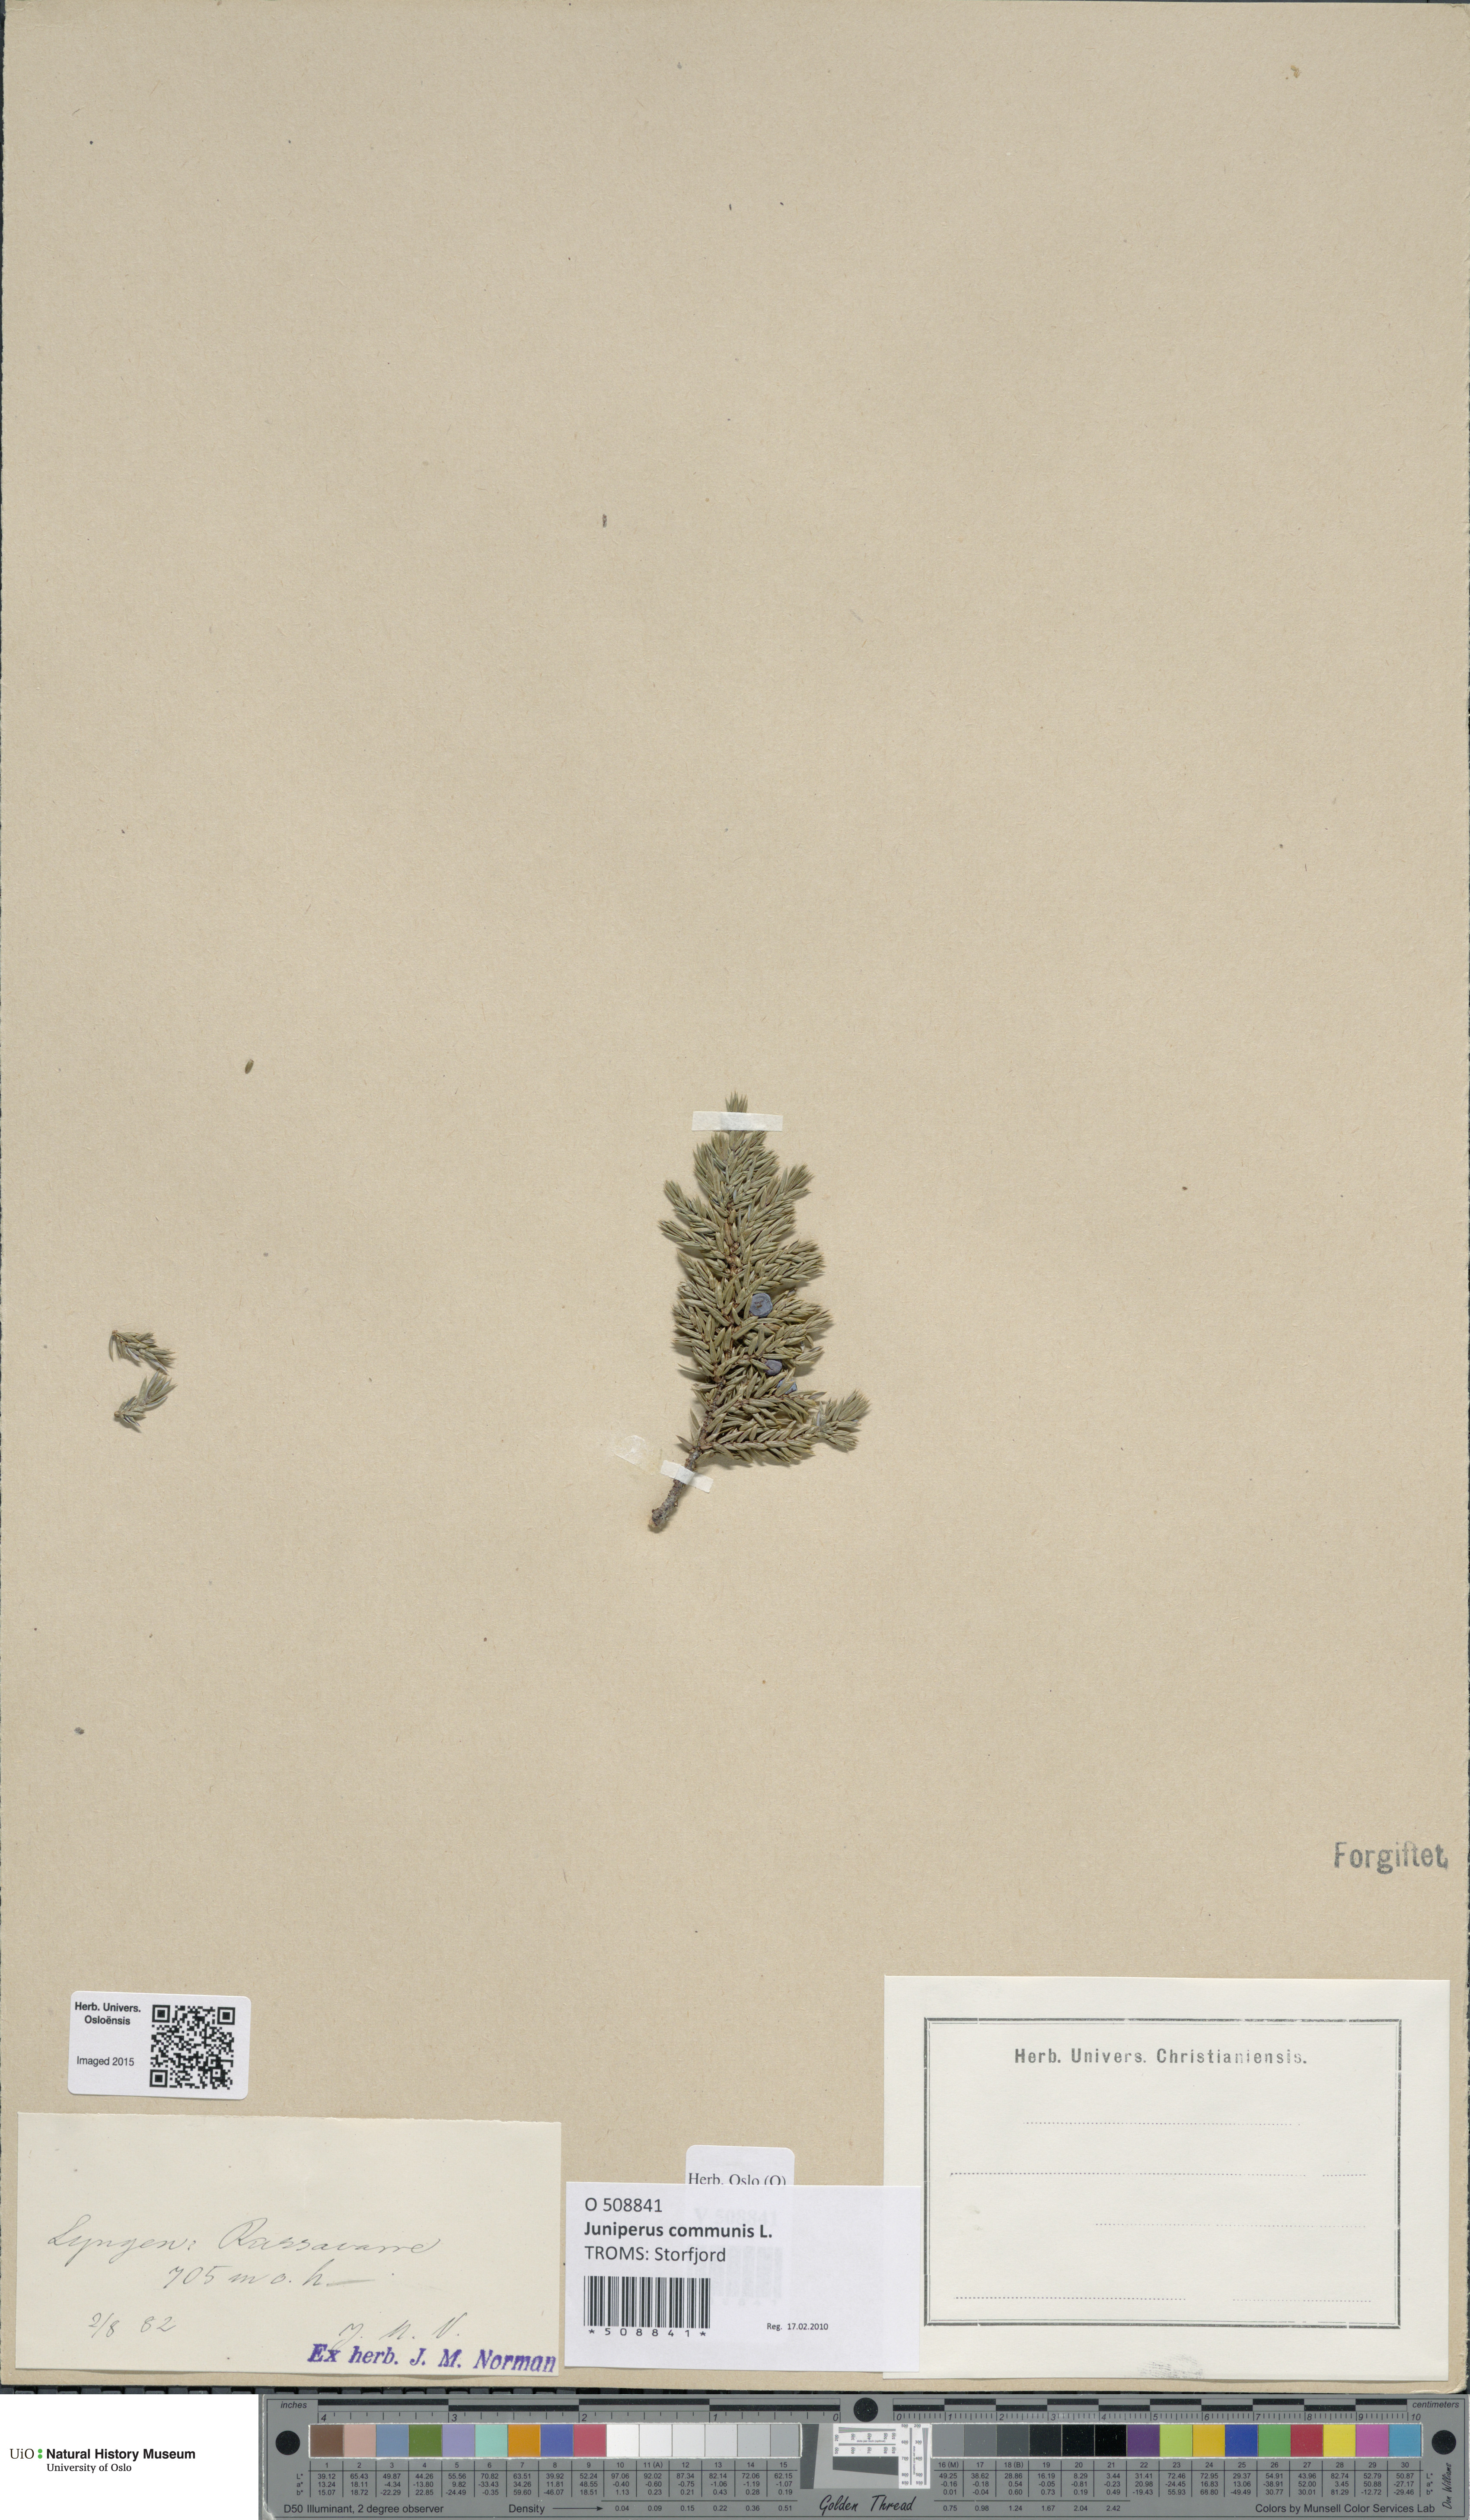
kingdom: Plantae
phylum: Tracheophyta
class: Pinopsida
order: Pinales
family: Cupressaceae
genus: Juniperus
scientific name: Juniperus communis
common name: Common juniper
